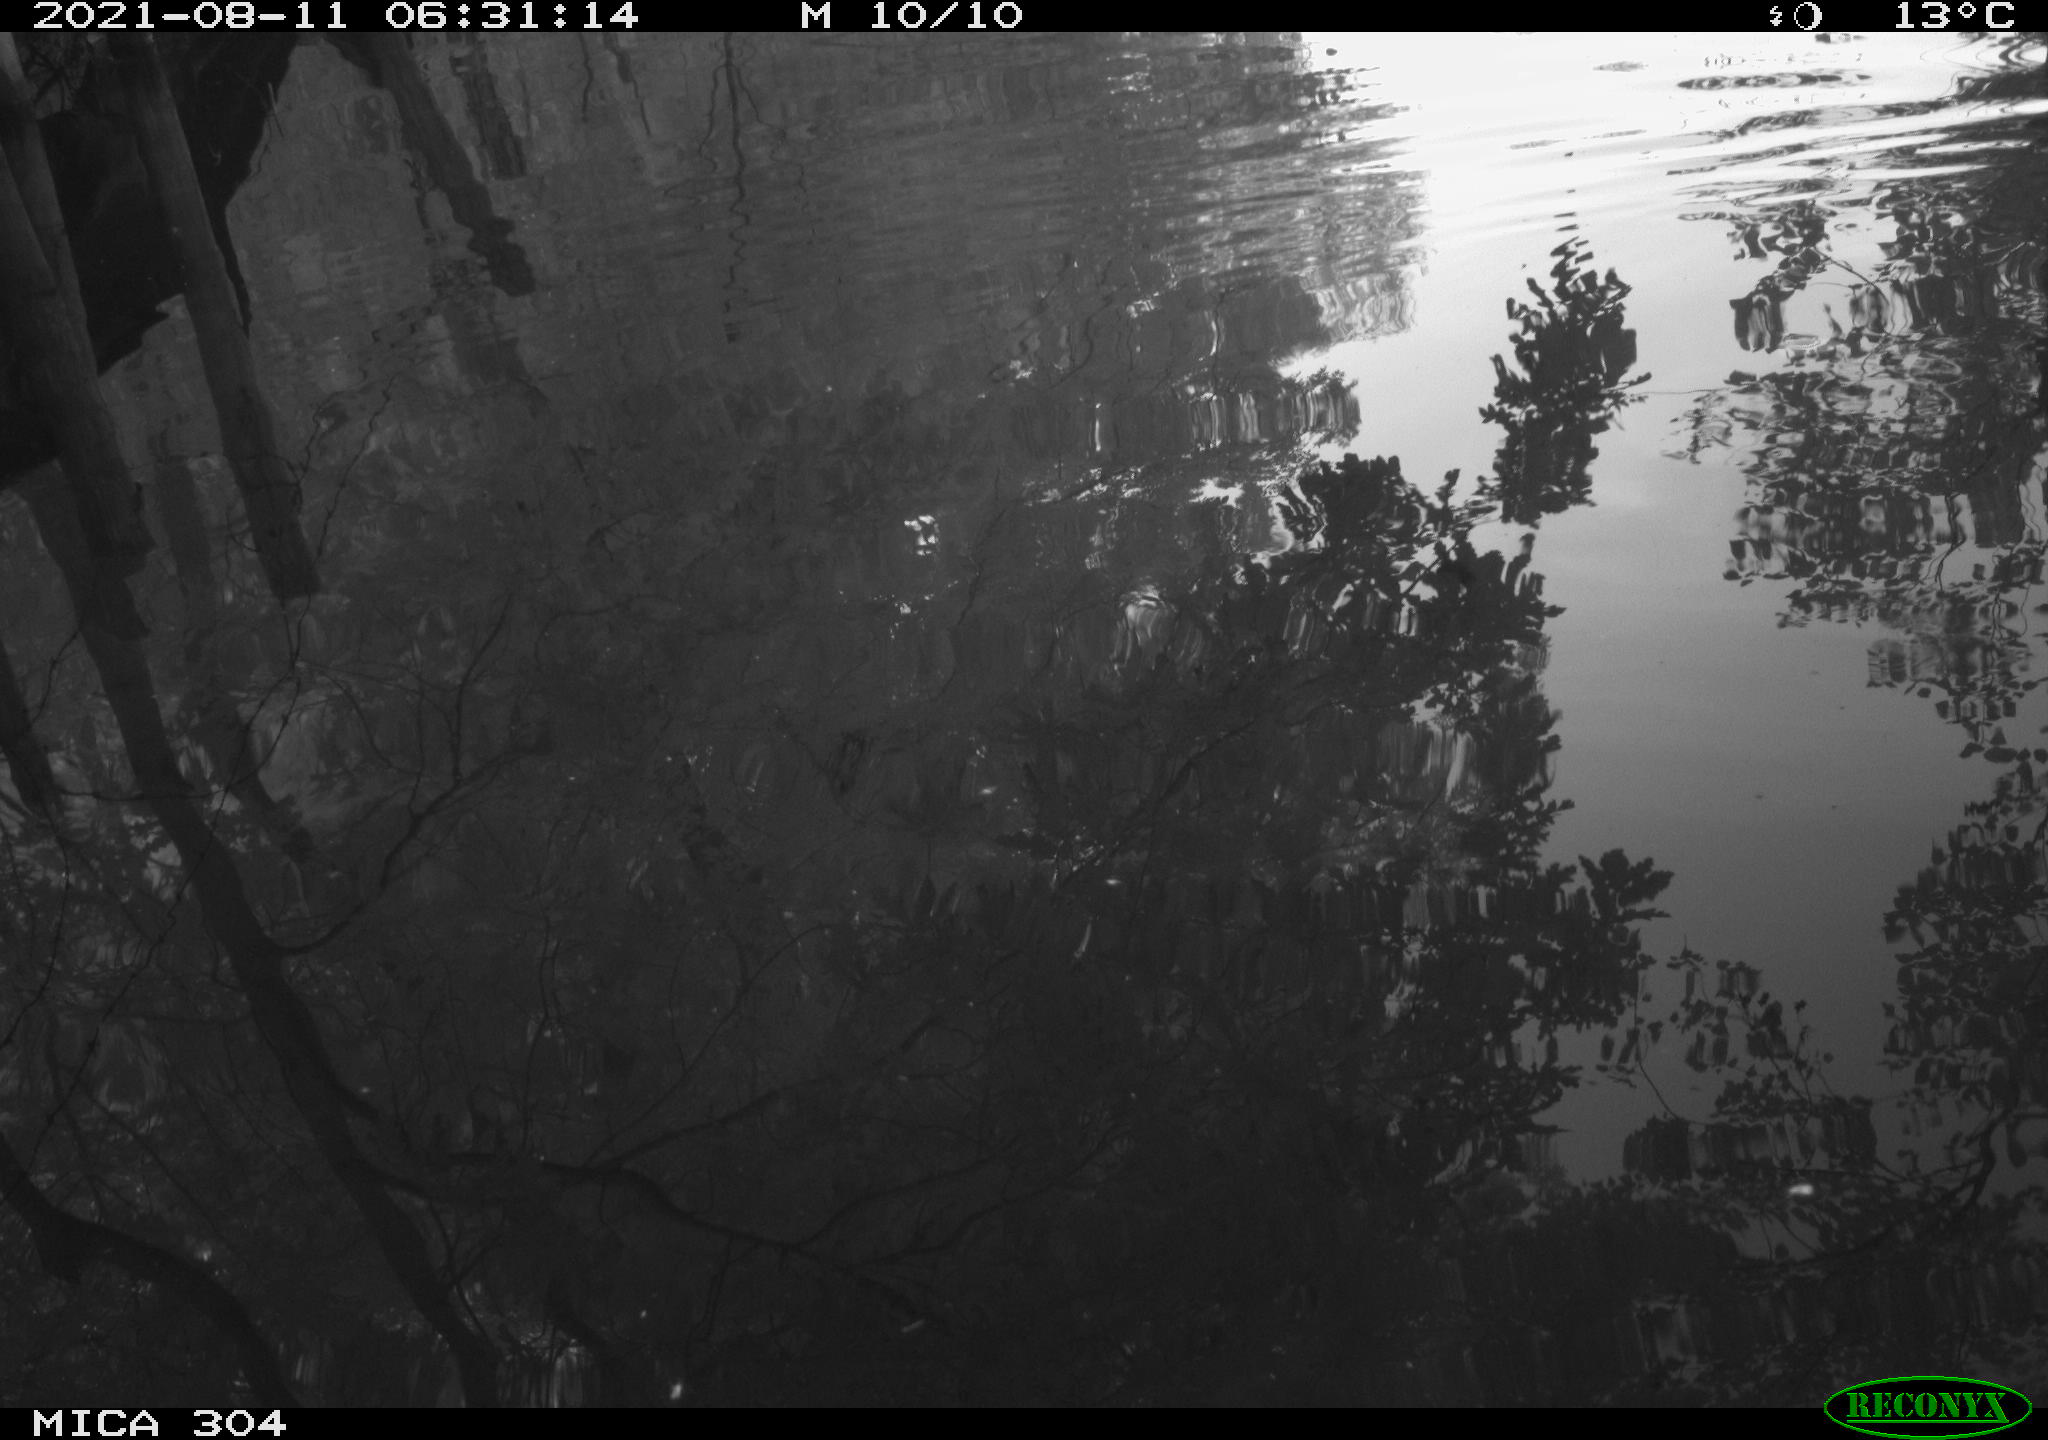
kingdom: Animalia
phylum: Chordata
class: Aves
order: Gruiformes
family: Rallidae
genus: Fulica
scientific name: Fulica atra
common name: Eurasian coot
